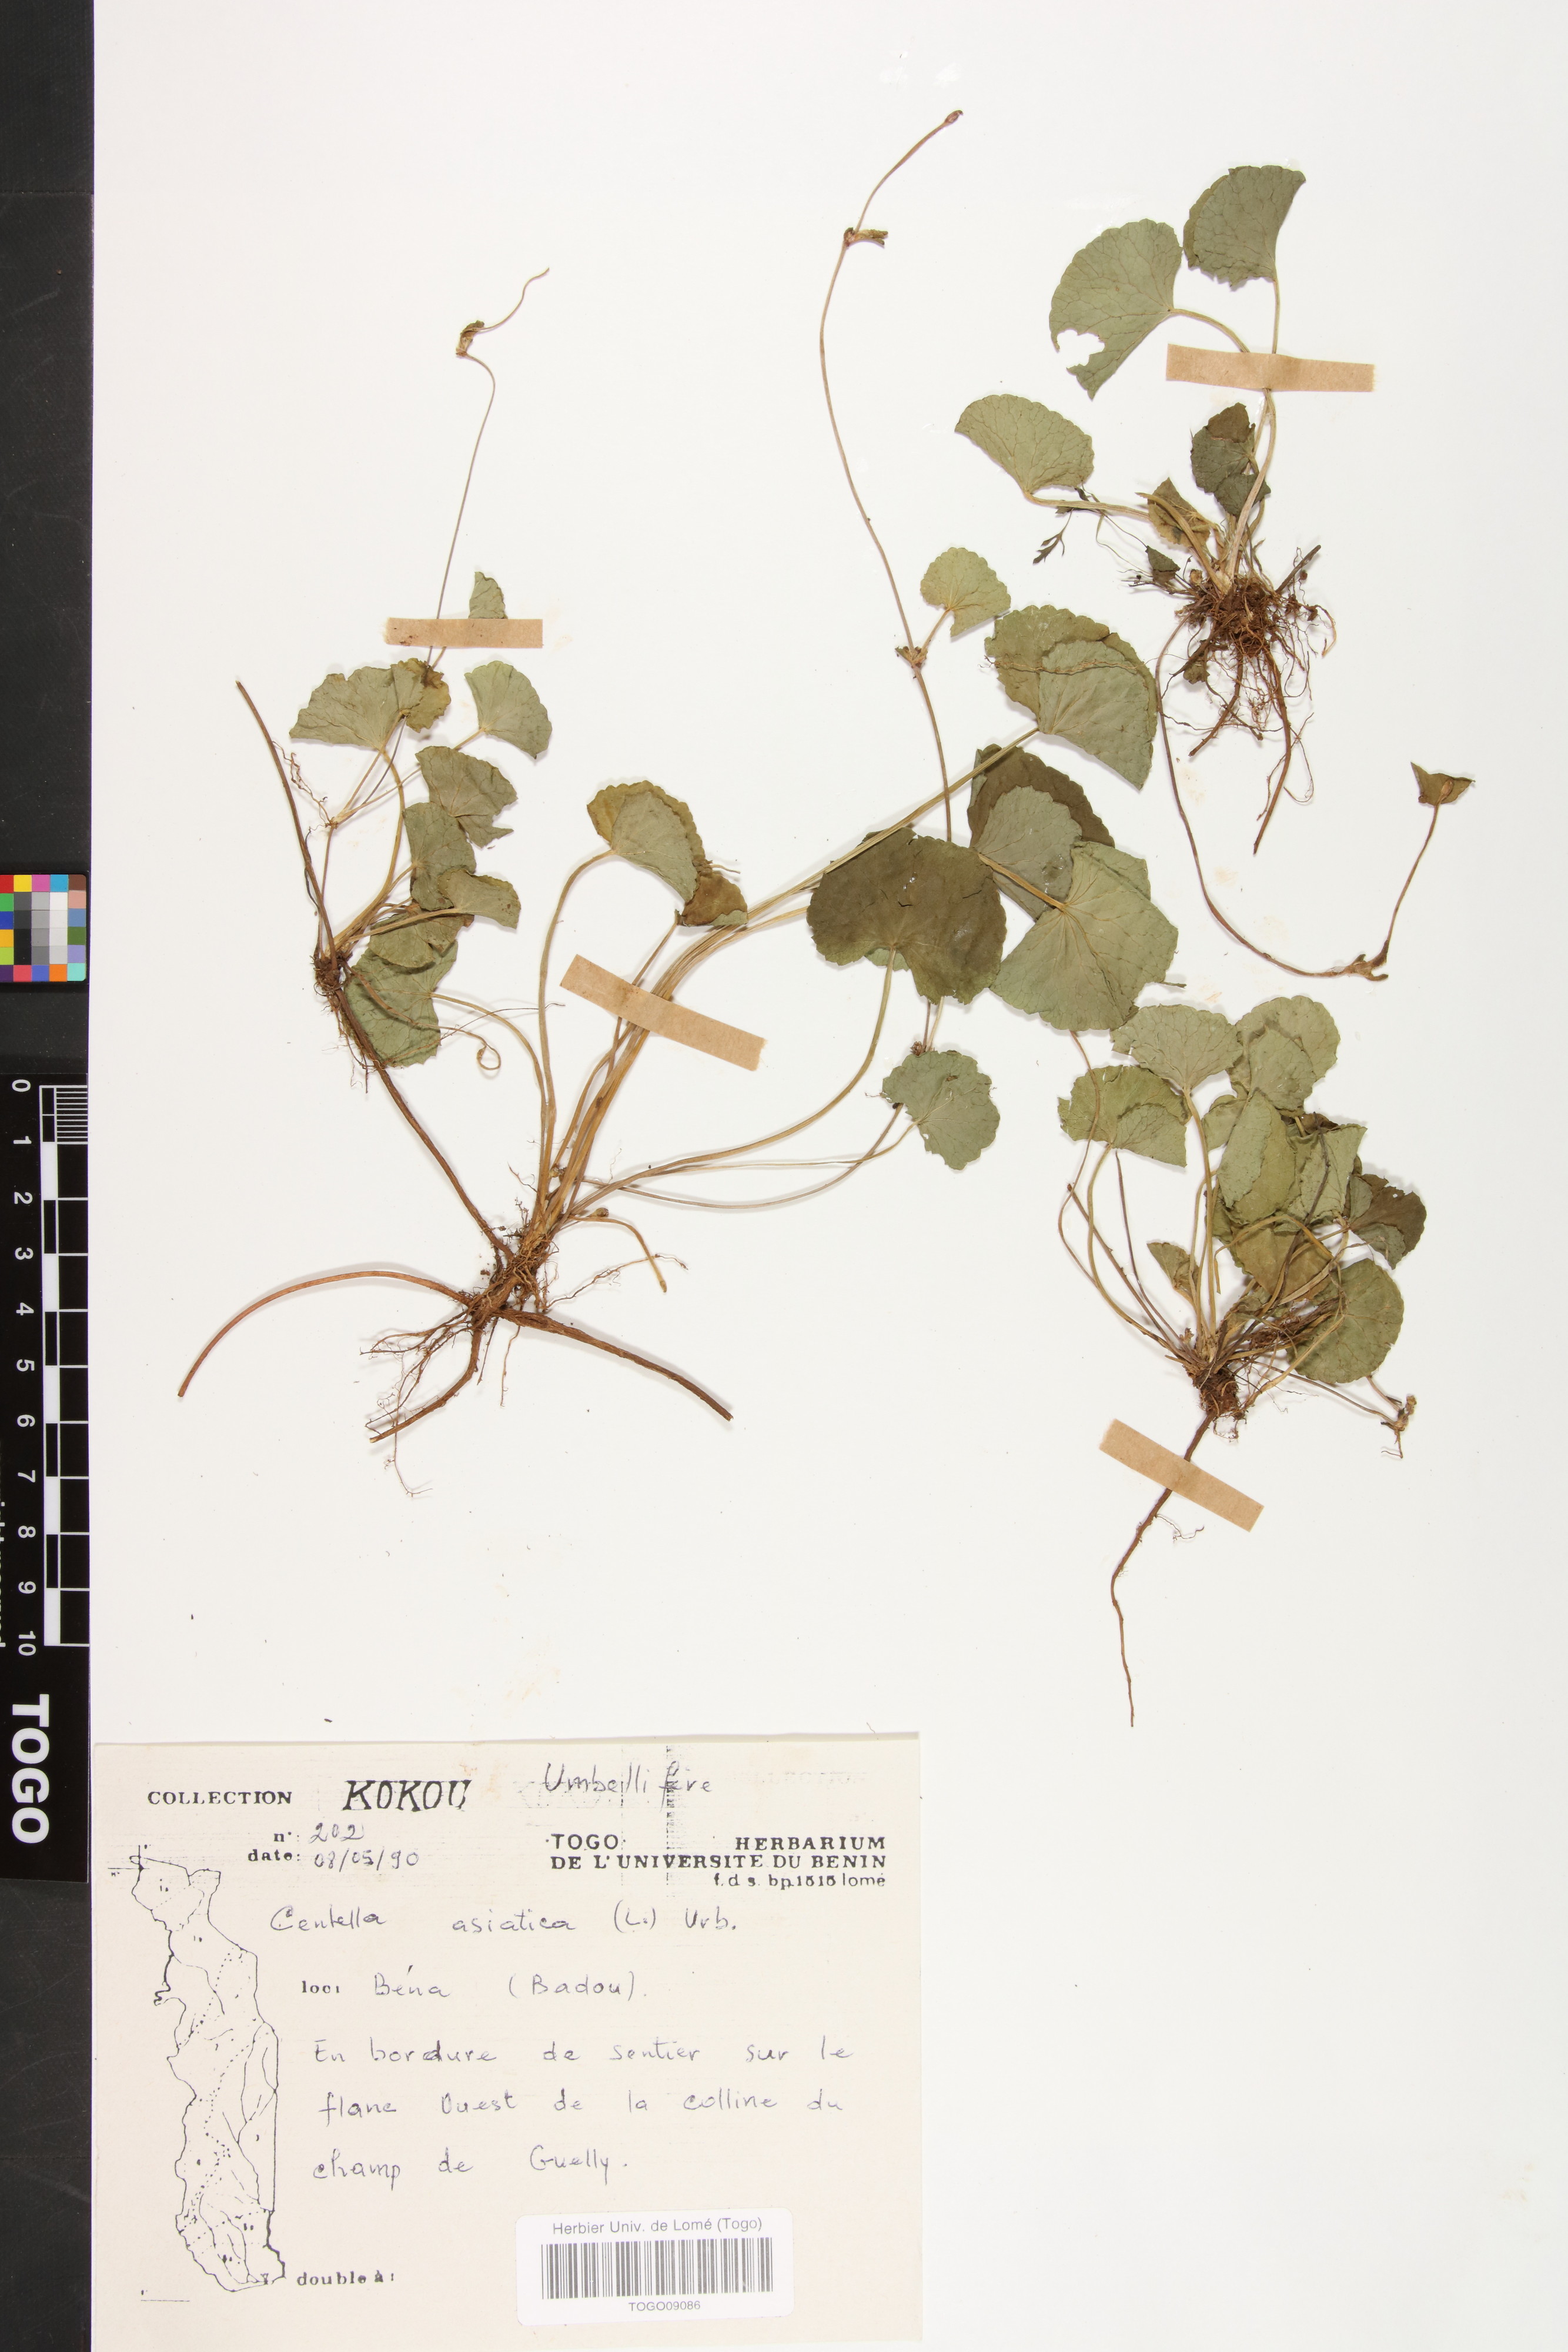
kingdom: Plantae
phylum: Tracheophyta
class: Magnoliopsida
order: Apiales
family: Apiaceae
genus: Centella
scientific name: Centella asiatica
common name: Spadeleaf
